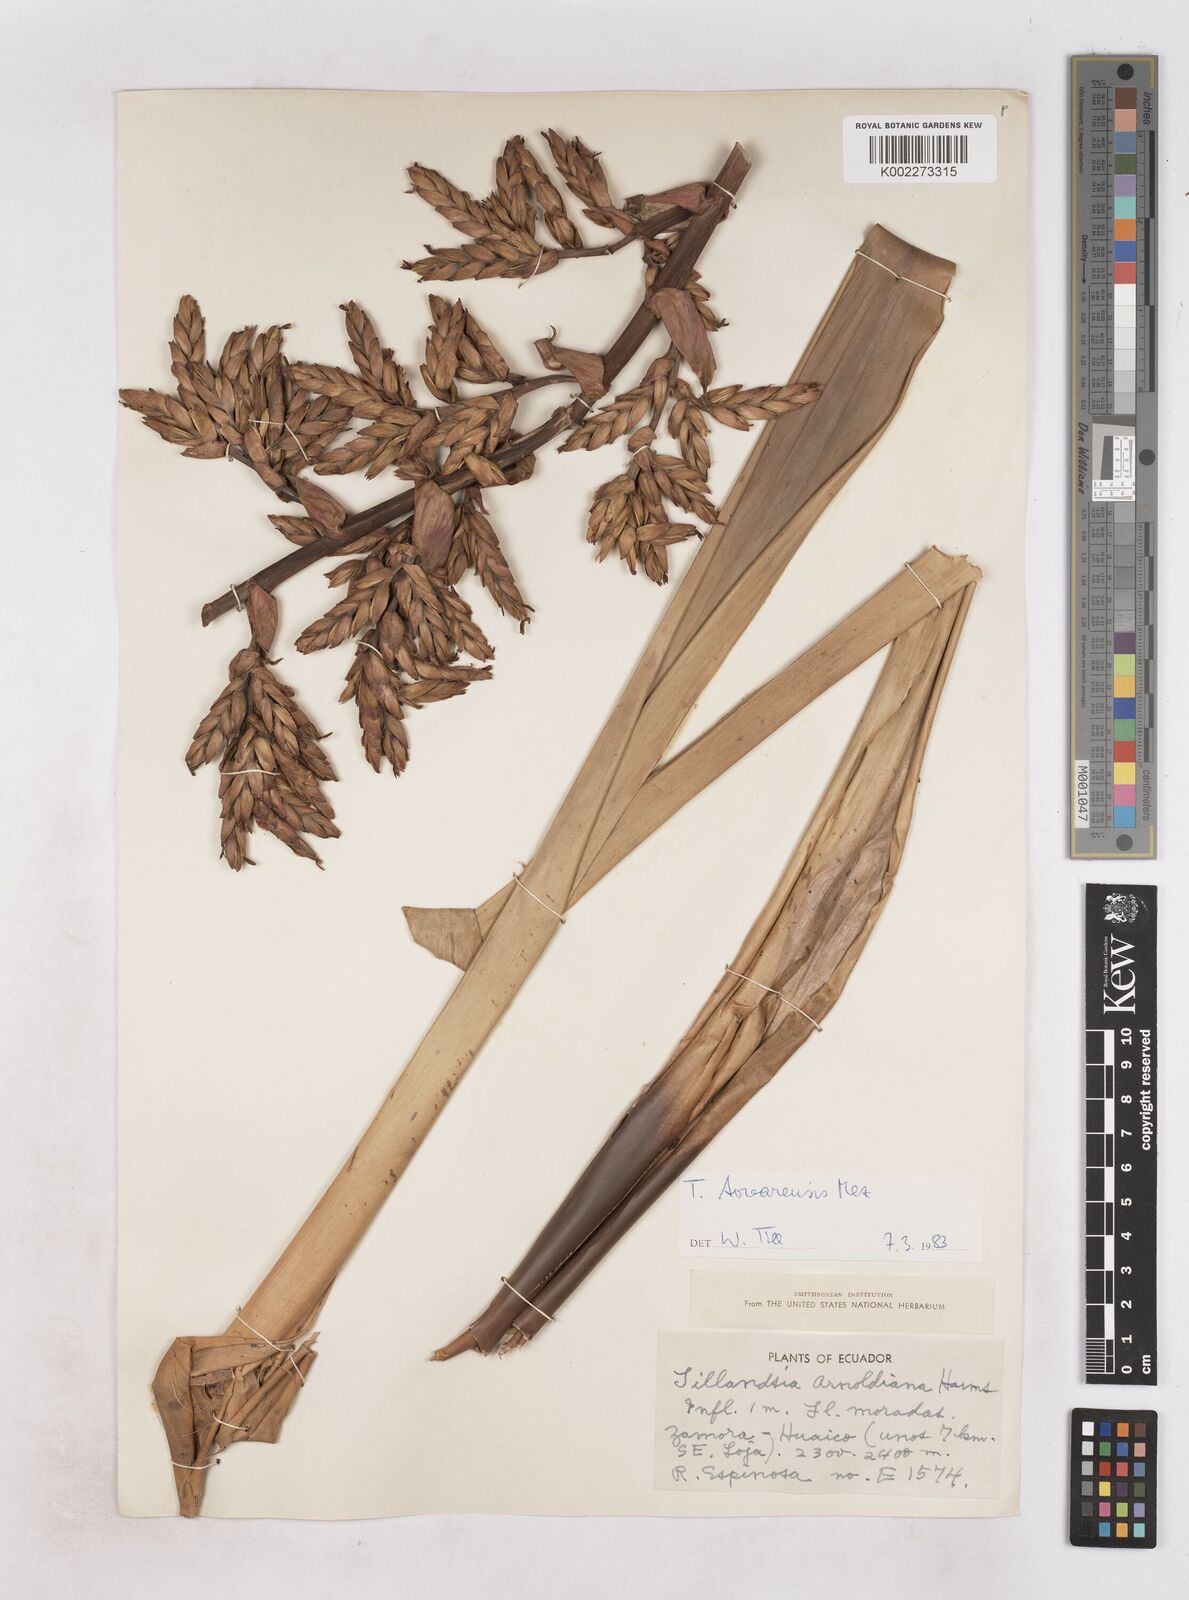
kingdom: Plantae
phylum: Tracheophyta
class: Liliopsida
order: Poales
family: Bromeliaceae
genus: Tillandsia
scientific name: Tillandsia tovarensis
